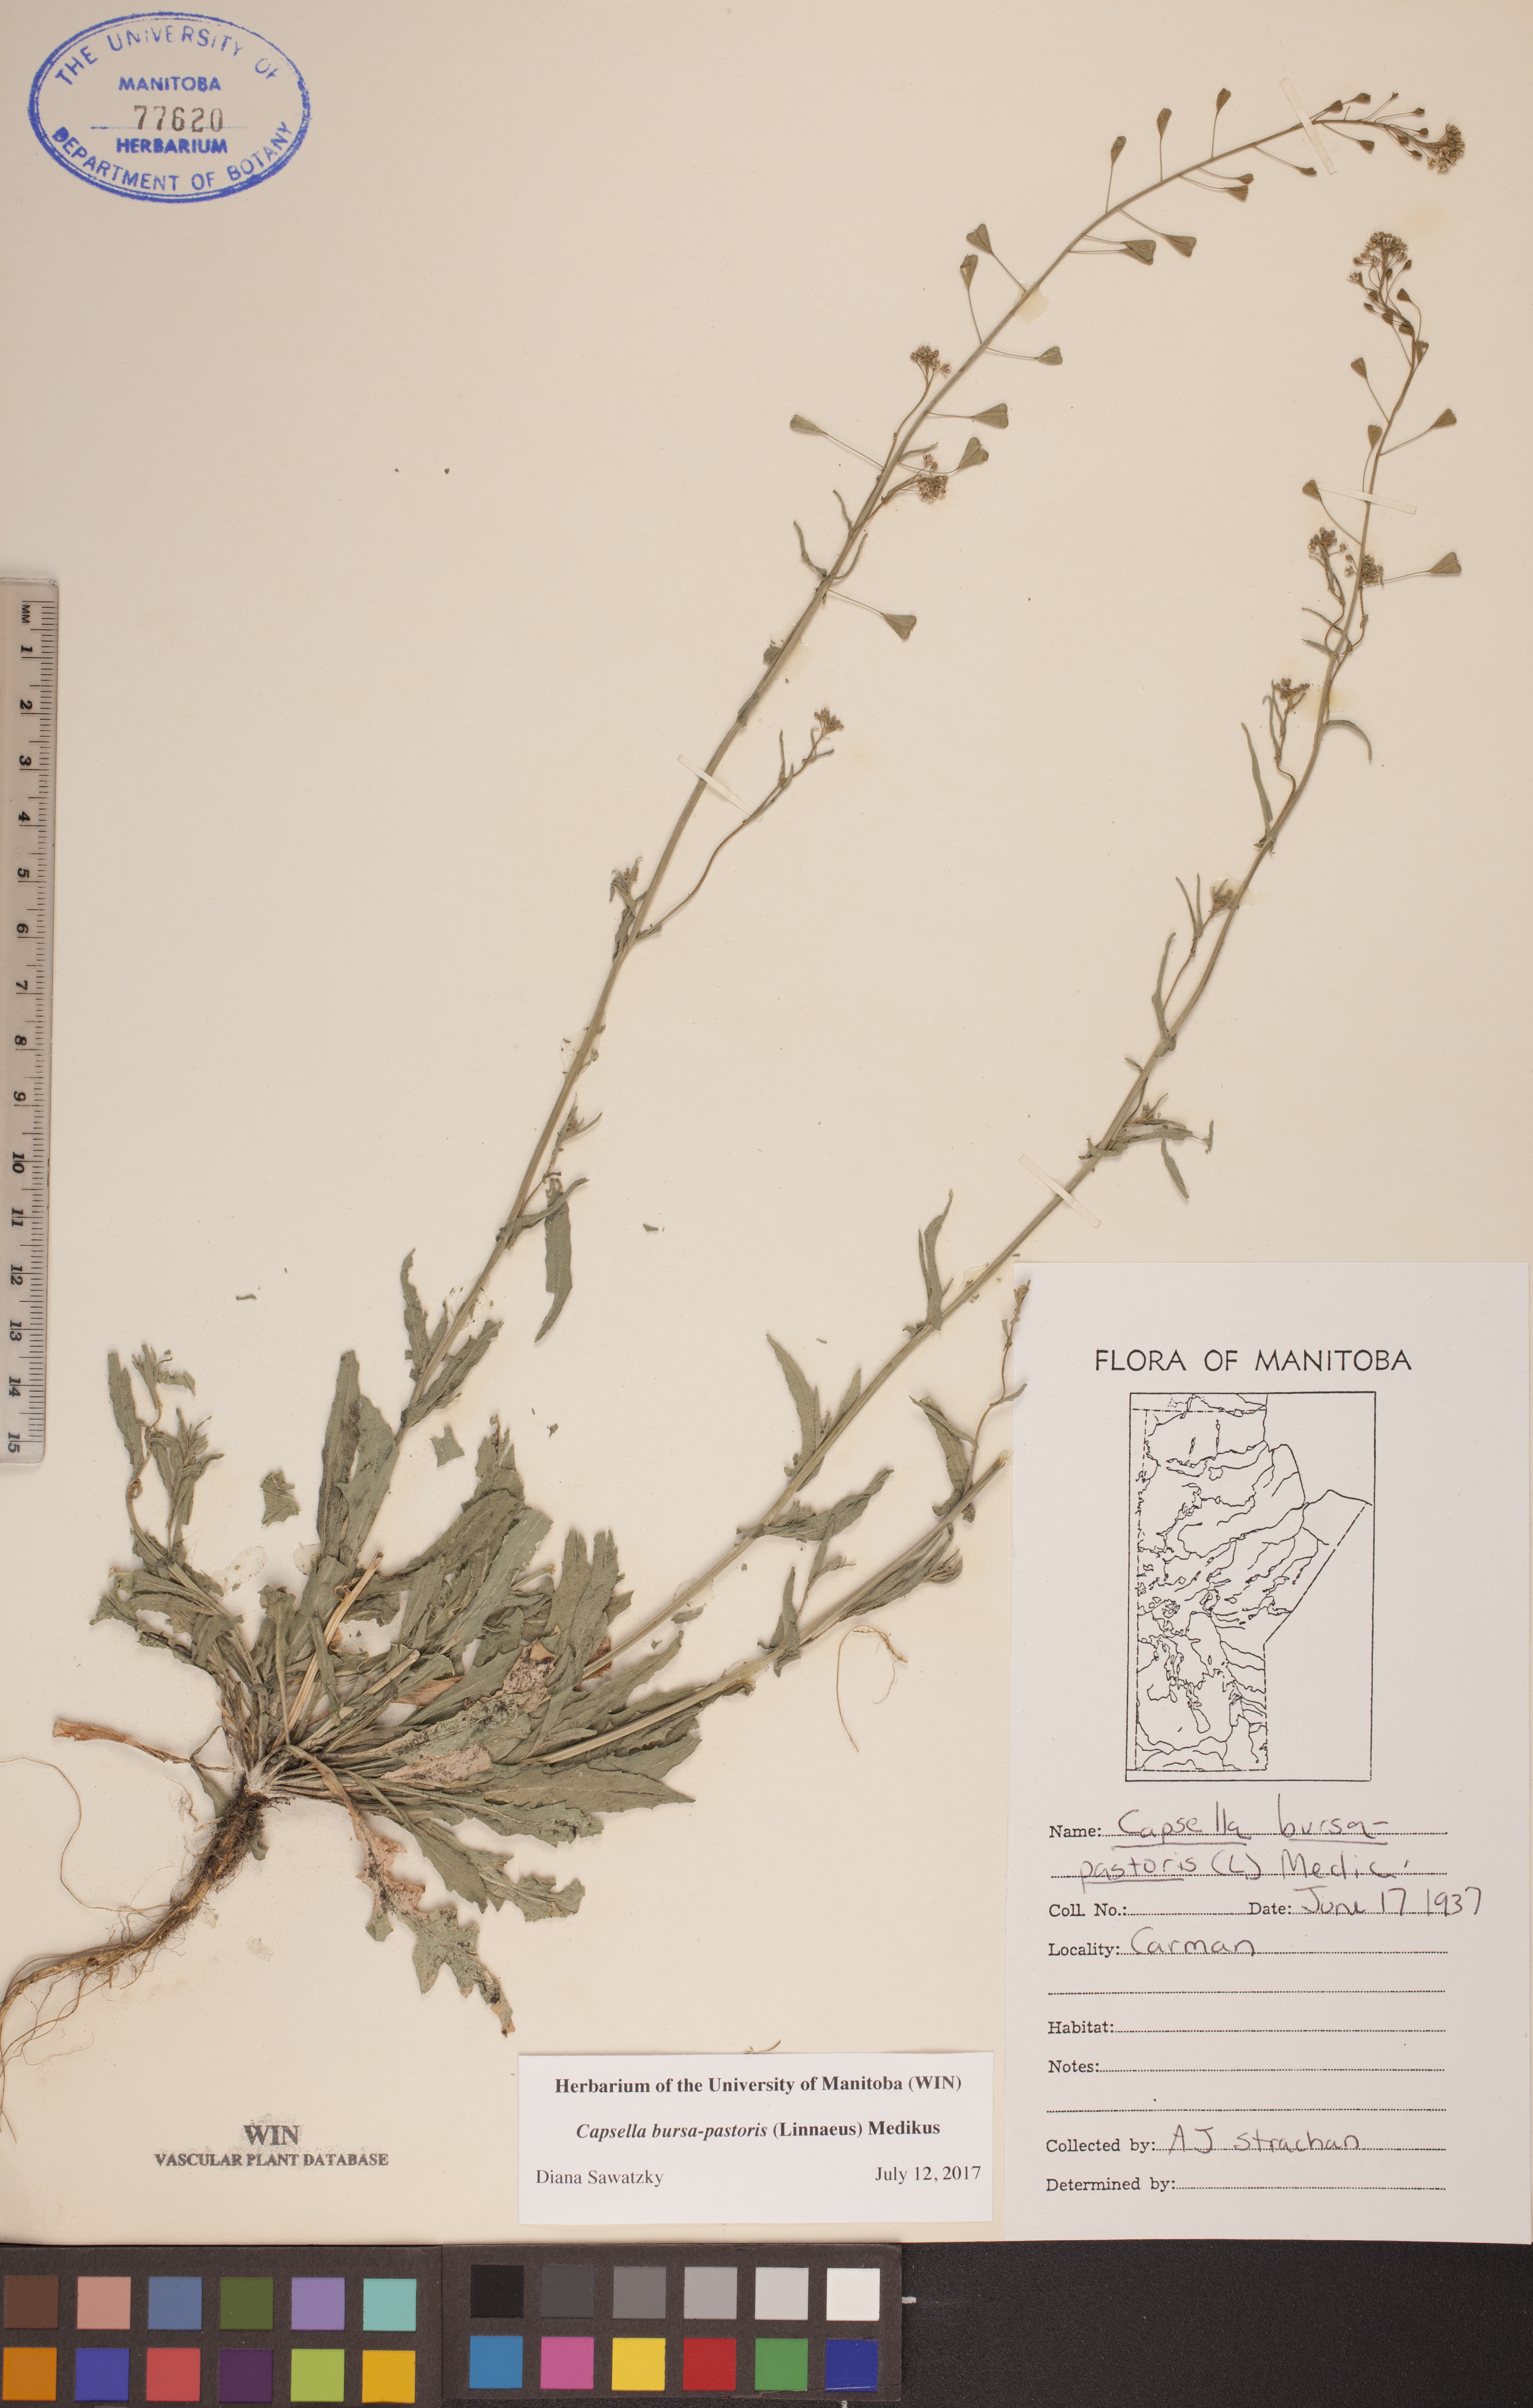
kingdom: Plantae
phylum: Tracheophyta
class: Magnoliopsida
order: Brassicales
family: Brassicaceae
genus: Capsella
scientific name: Capsella bursa-pastoris
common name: Shepherd's purse
